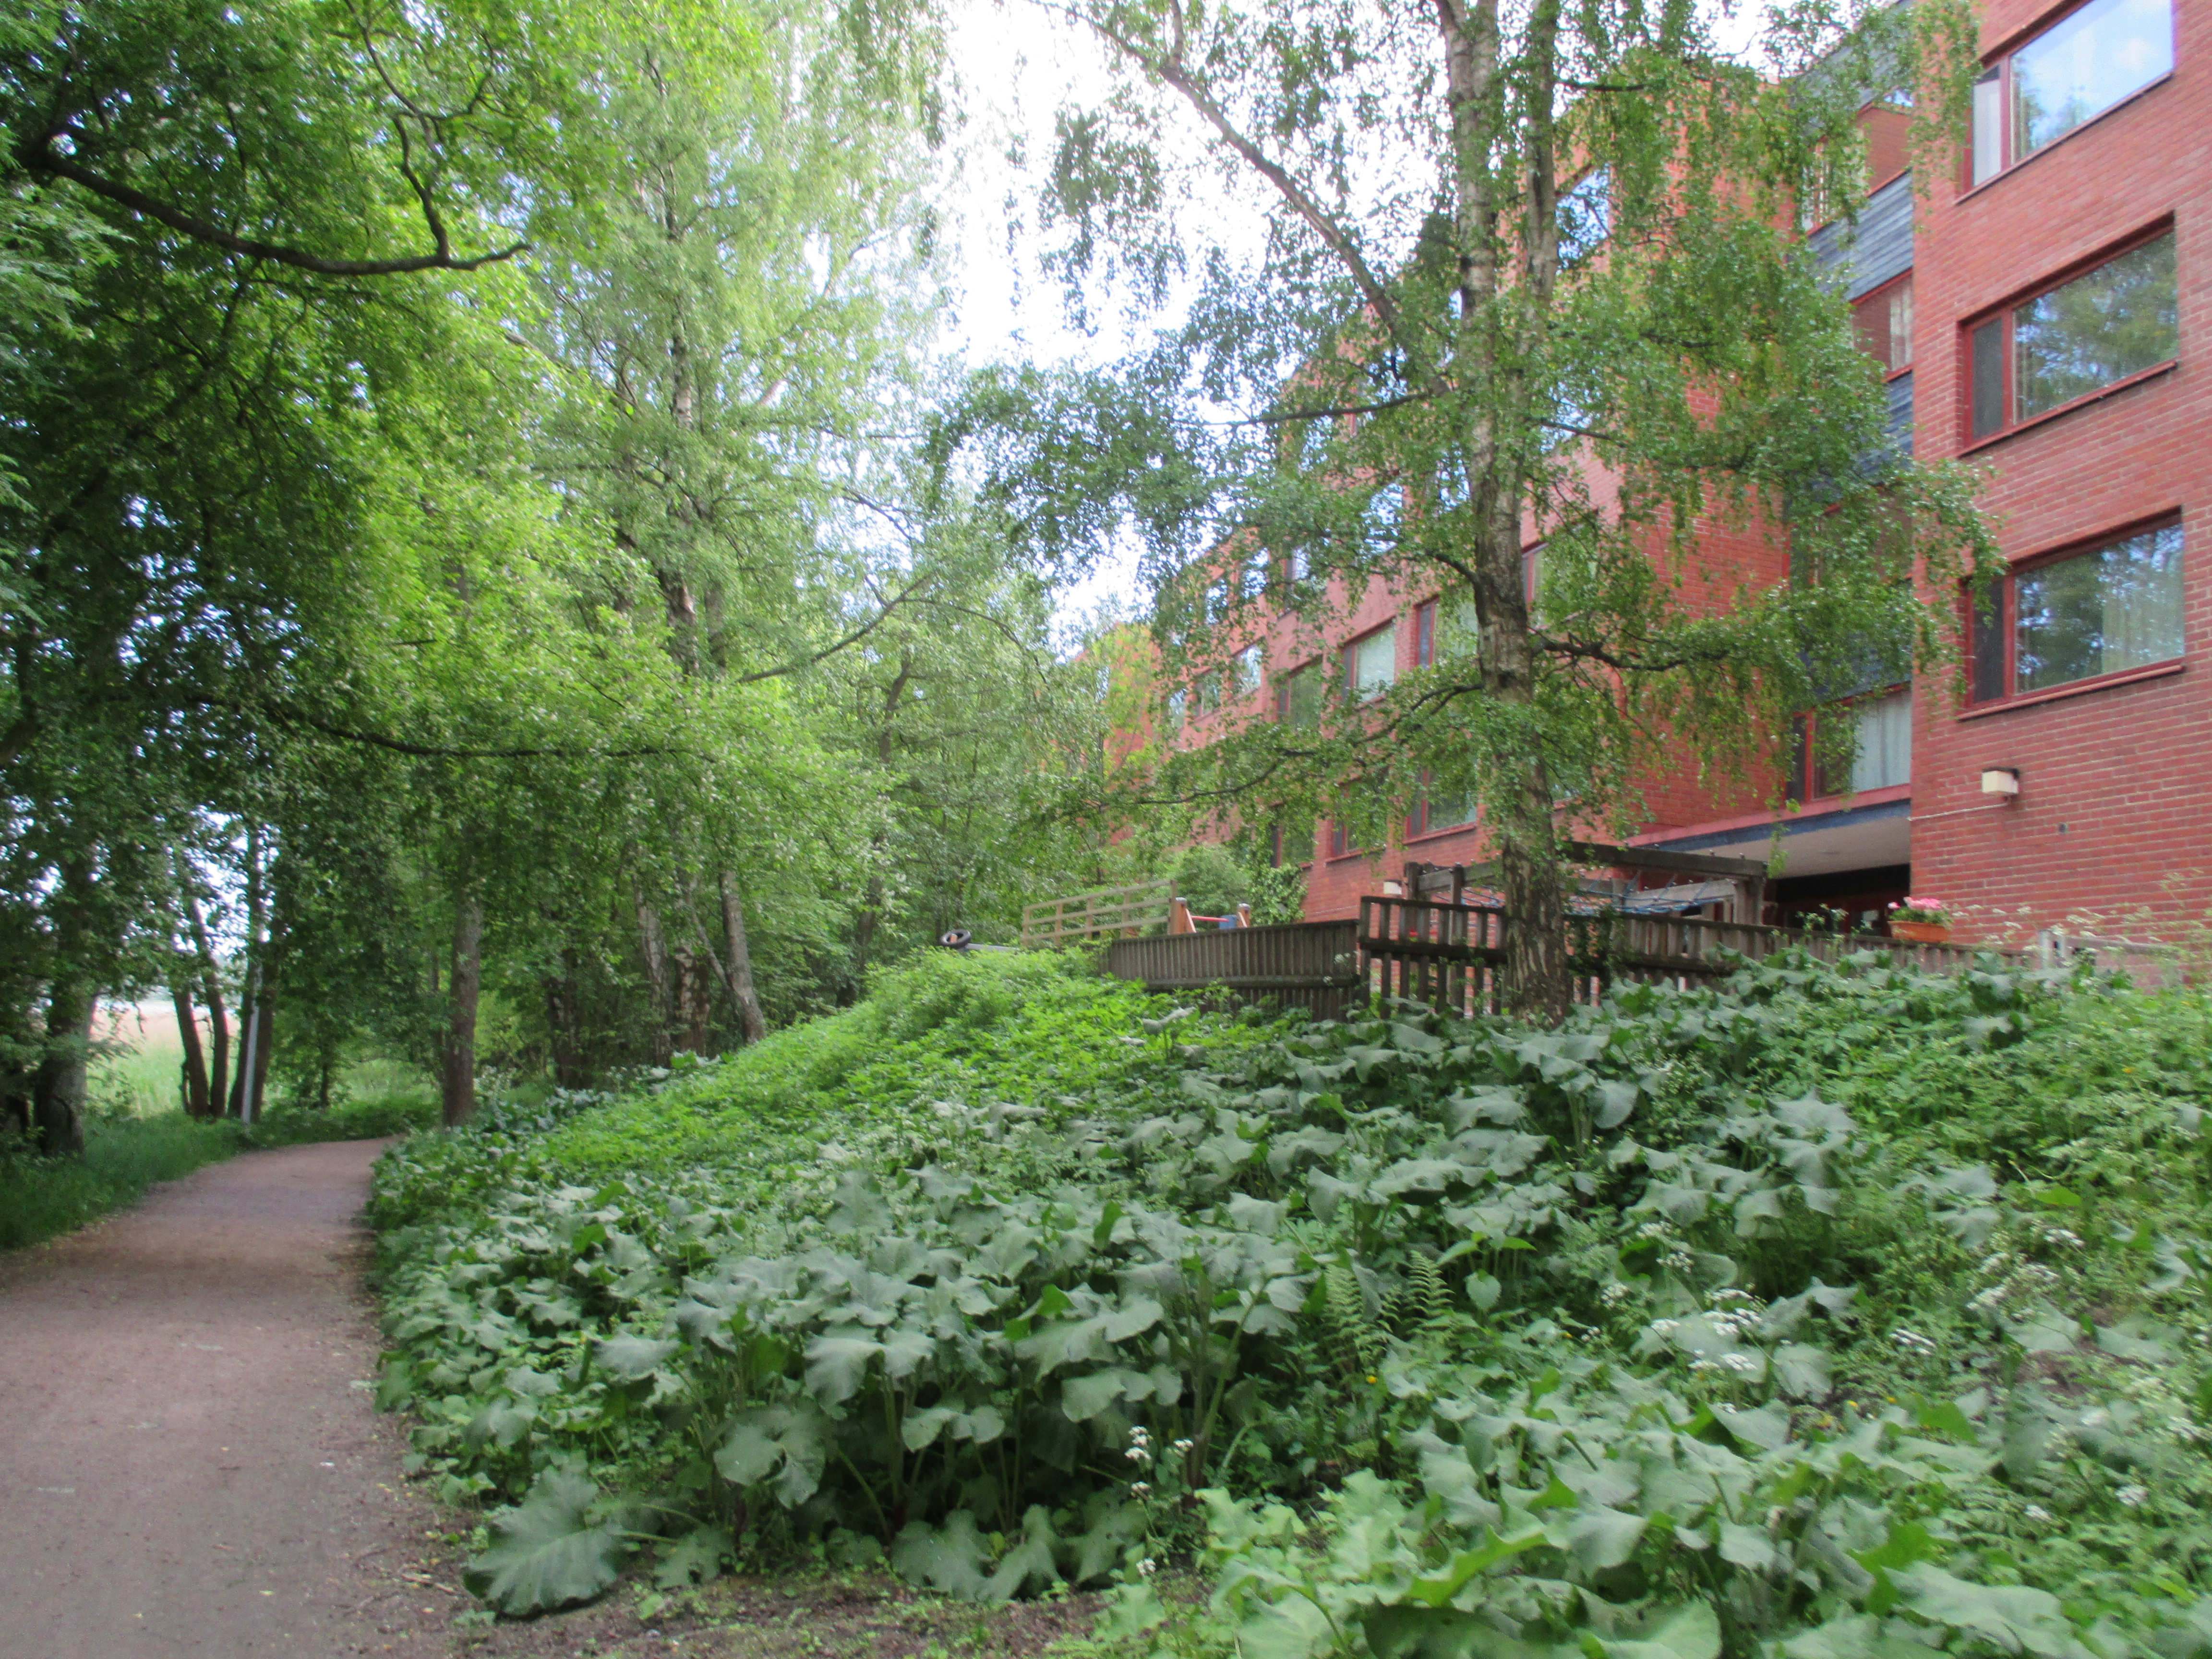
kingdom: Plantae
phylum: Tracheophyta
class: Magnoliopsida
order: Asterales
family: Asteraceae
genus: Petasites
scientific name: Petasites hybridus
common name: Butterbur
